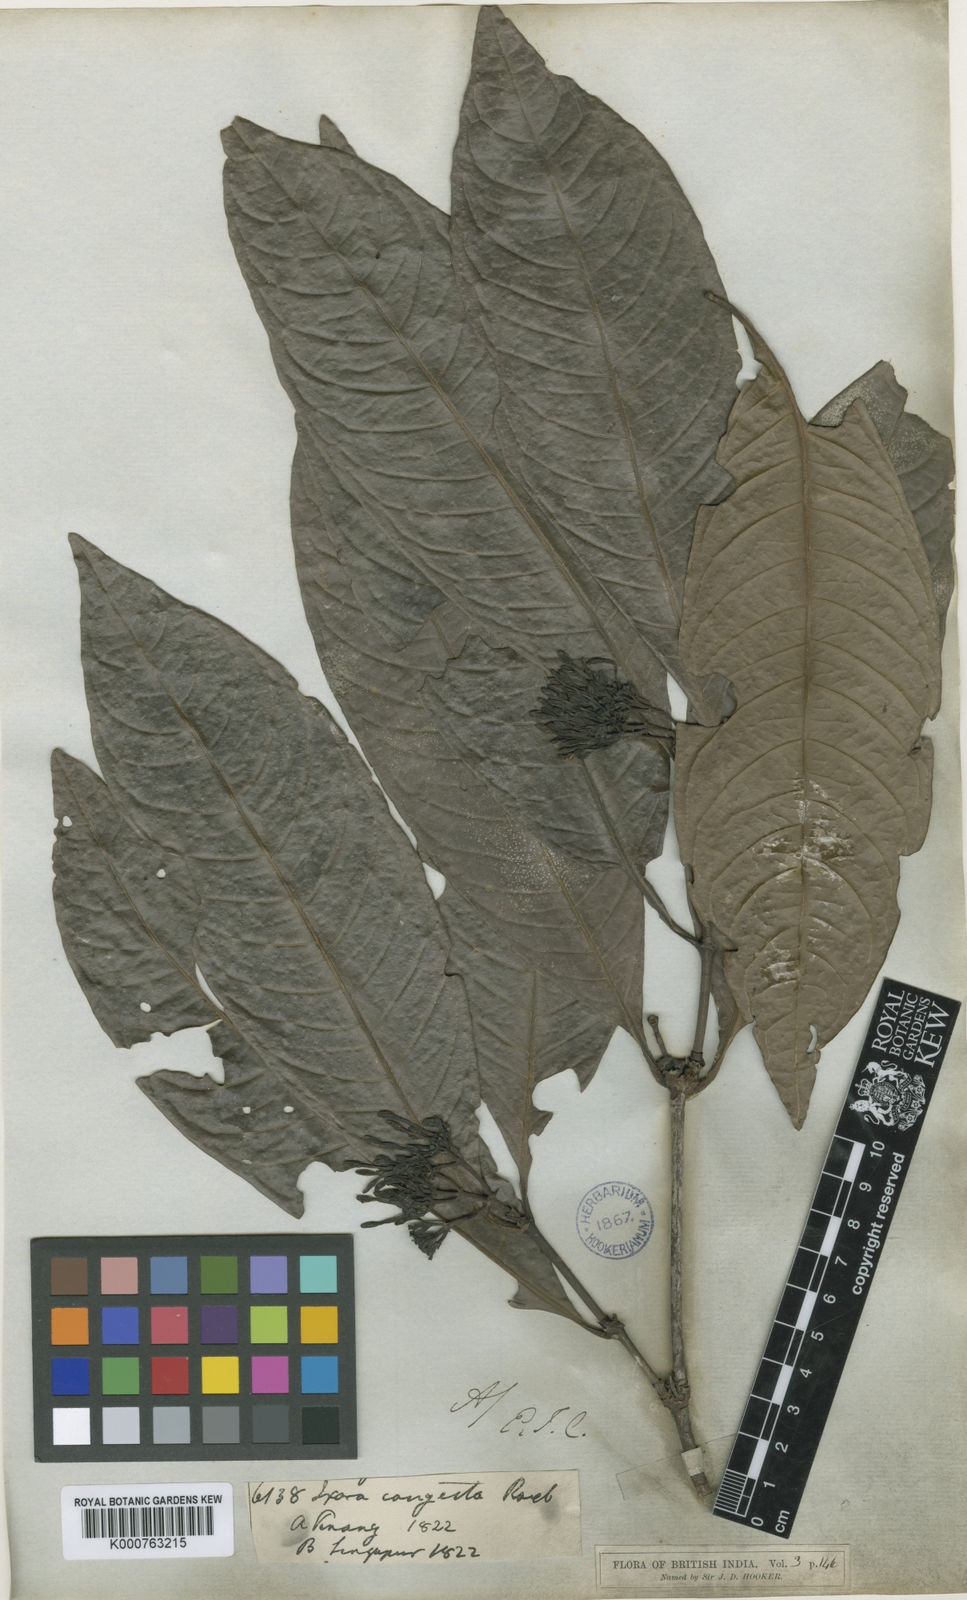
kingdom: Plantae
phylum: Tracheophyta
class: Magnoliopsida
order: Gentianales
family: Rubiaceae
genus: Ixora
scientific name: Ixora griffithii
